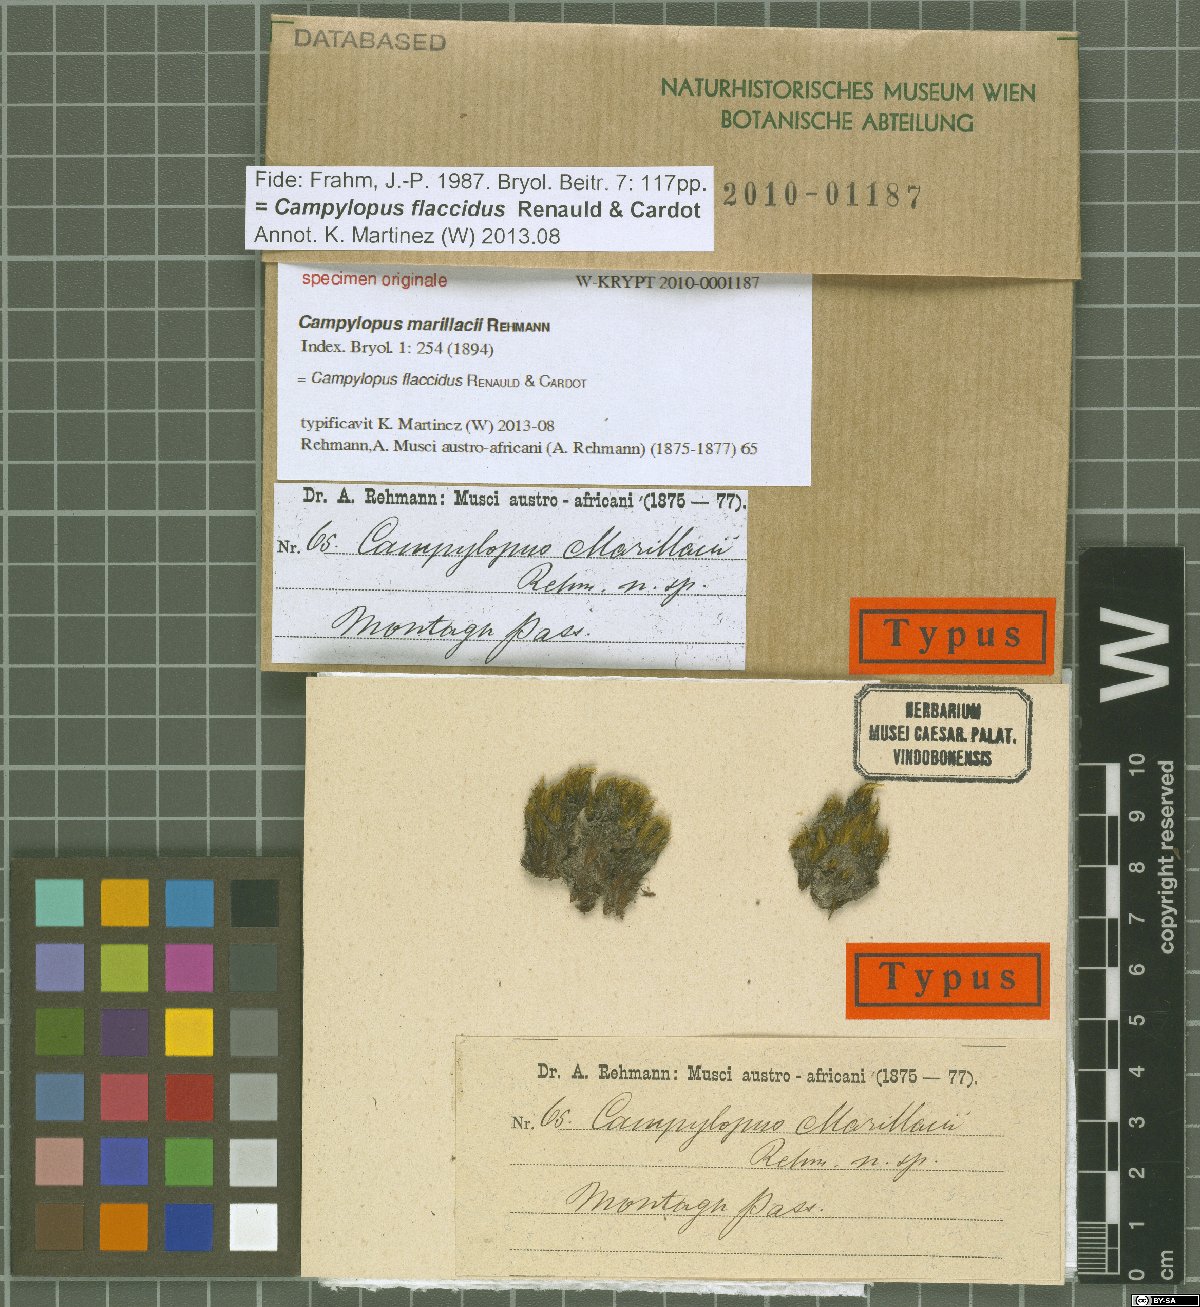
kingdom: Protozoa
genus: Campylopus
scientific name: Campylopus
